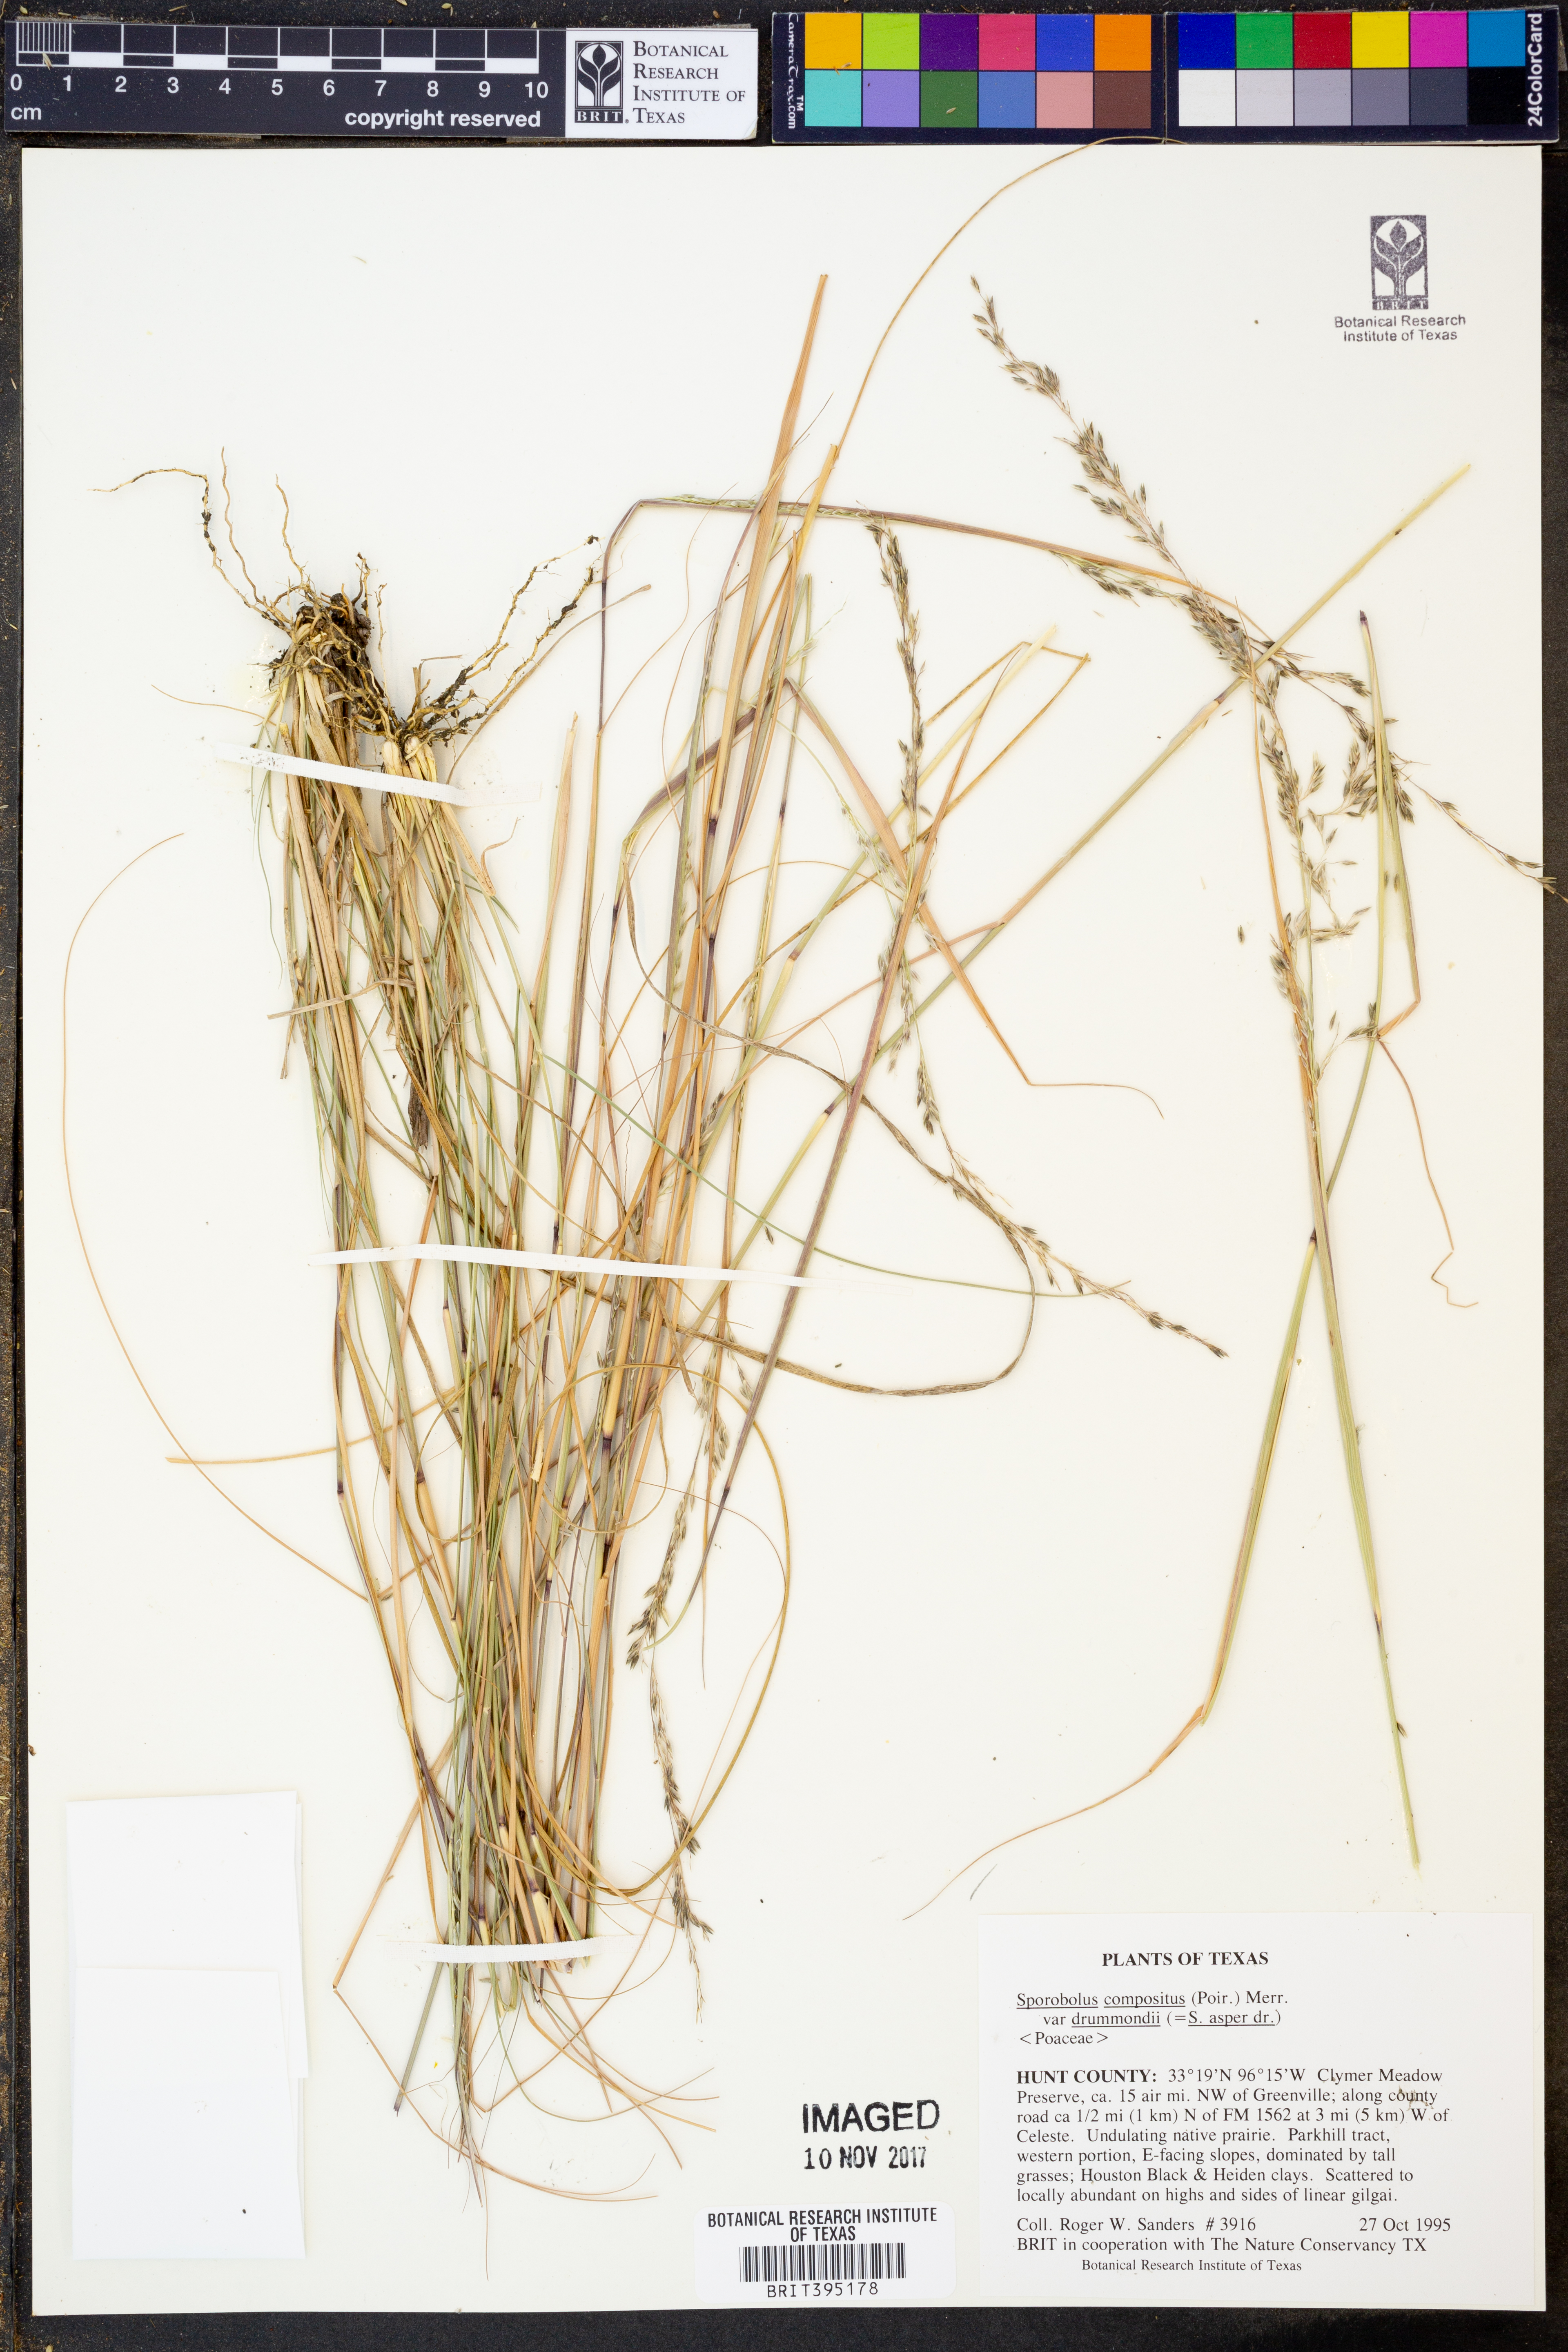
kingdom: Plantae
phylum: Tracheophyta
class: Liliopsida
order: Poales
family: Poaceae
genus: Sporobolus
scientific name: Sporobolus compositus
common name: Rough dropseed
